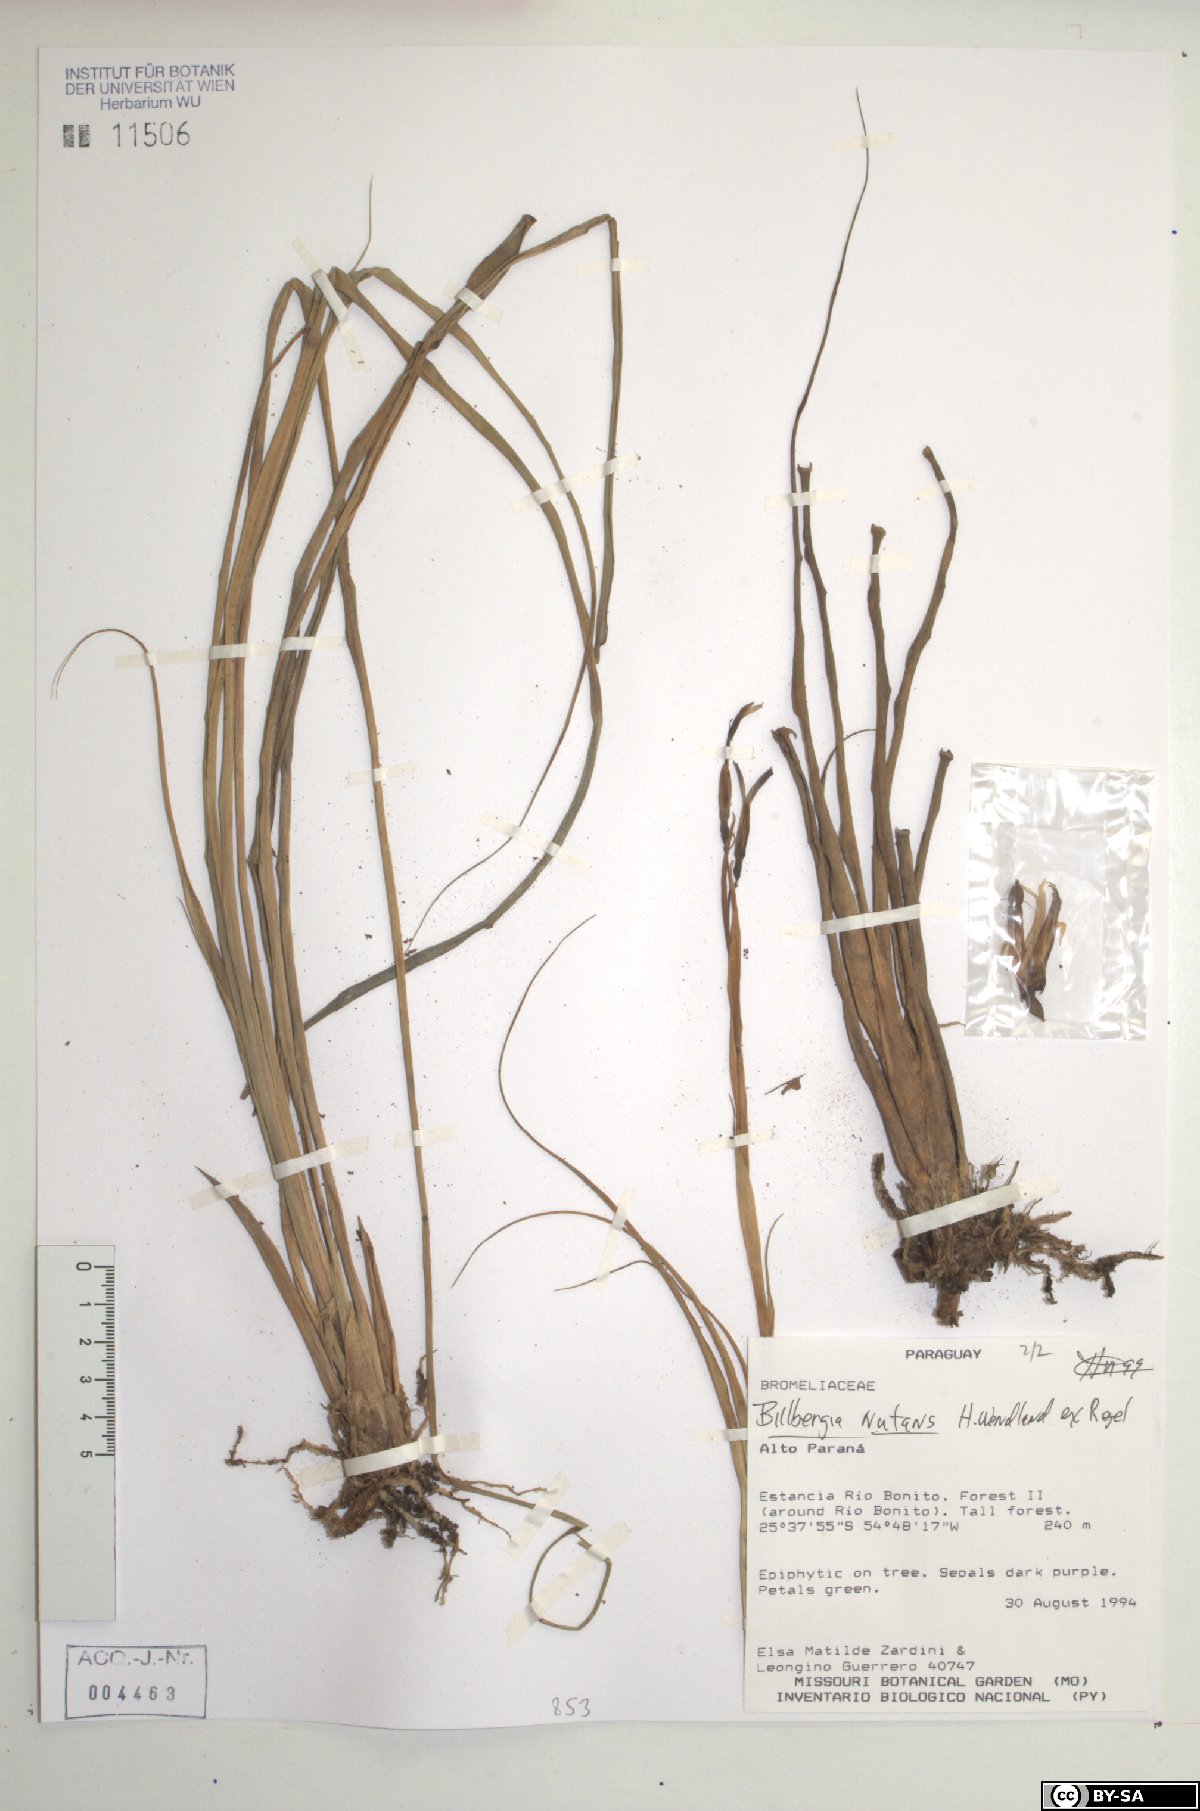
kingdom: Plantae
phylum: Tracheophyta
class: Liliopsida
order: Poales
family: Bromeliaceae
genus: Billbergia
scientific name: Billbergia nutans
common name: Friendship-plant
